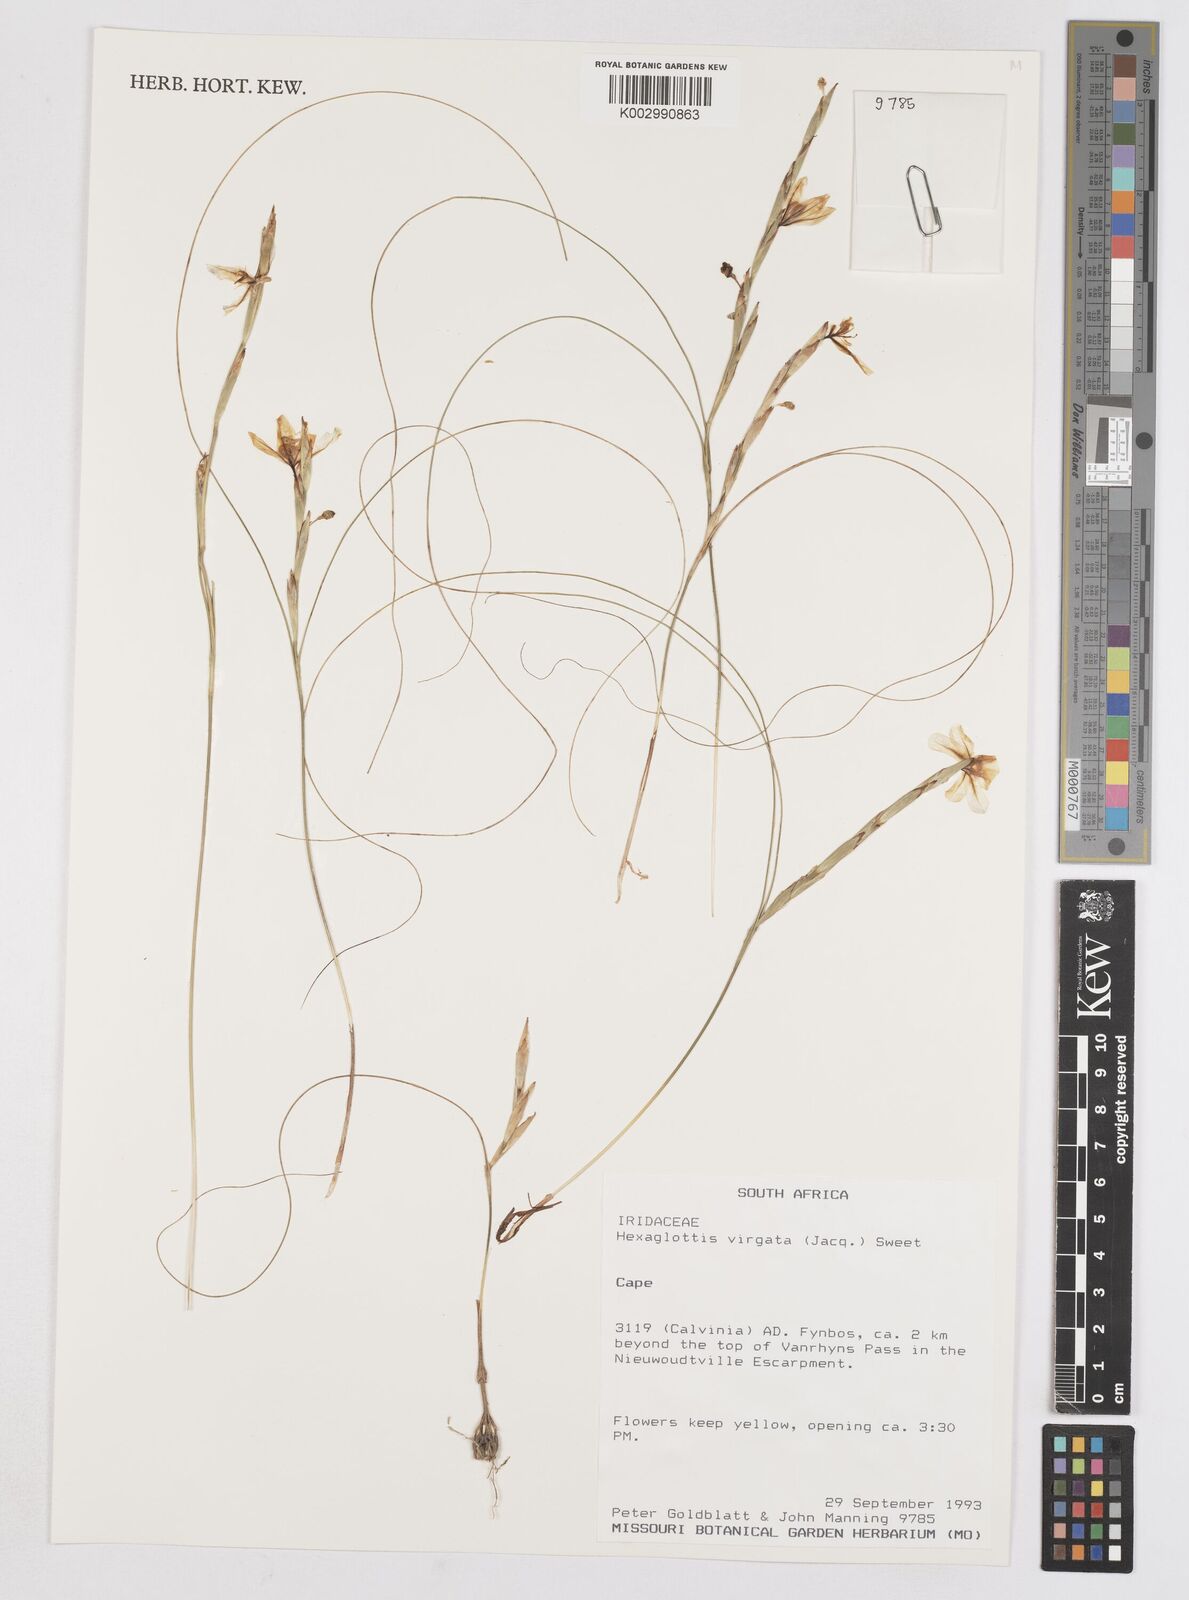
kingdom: Plantae
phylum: Tracheophyta
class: Liliopsida
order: Asparagales
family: Iridaceae
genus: Moraea
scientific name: Moraea virgata
